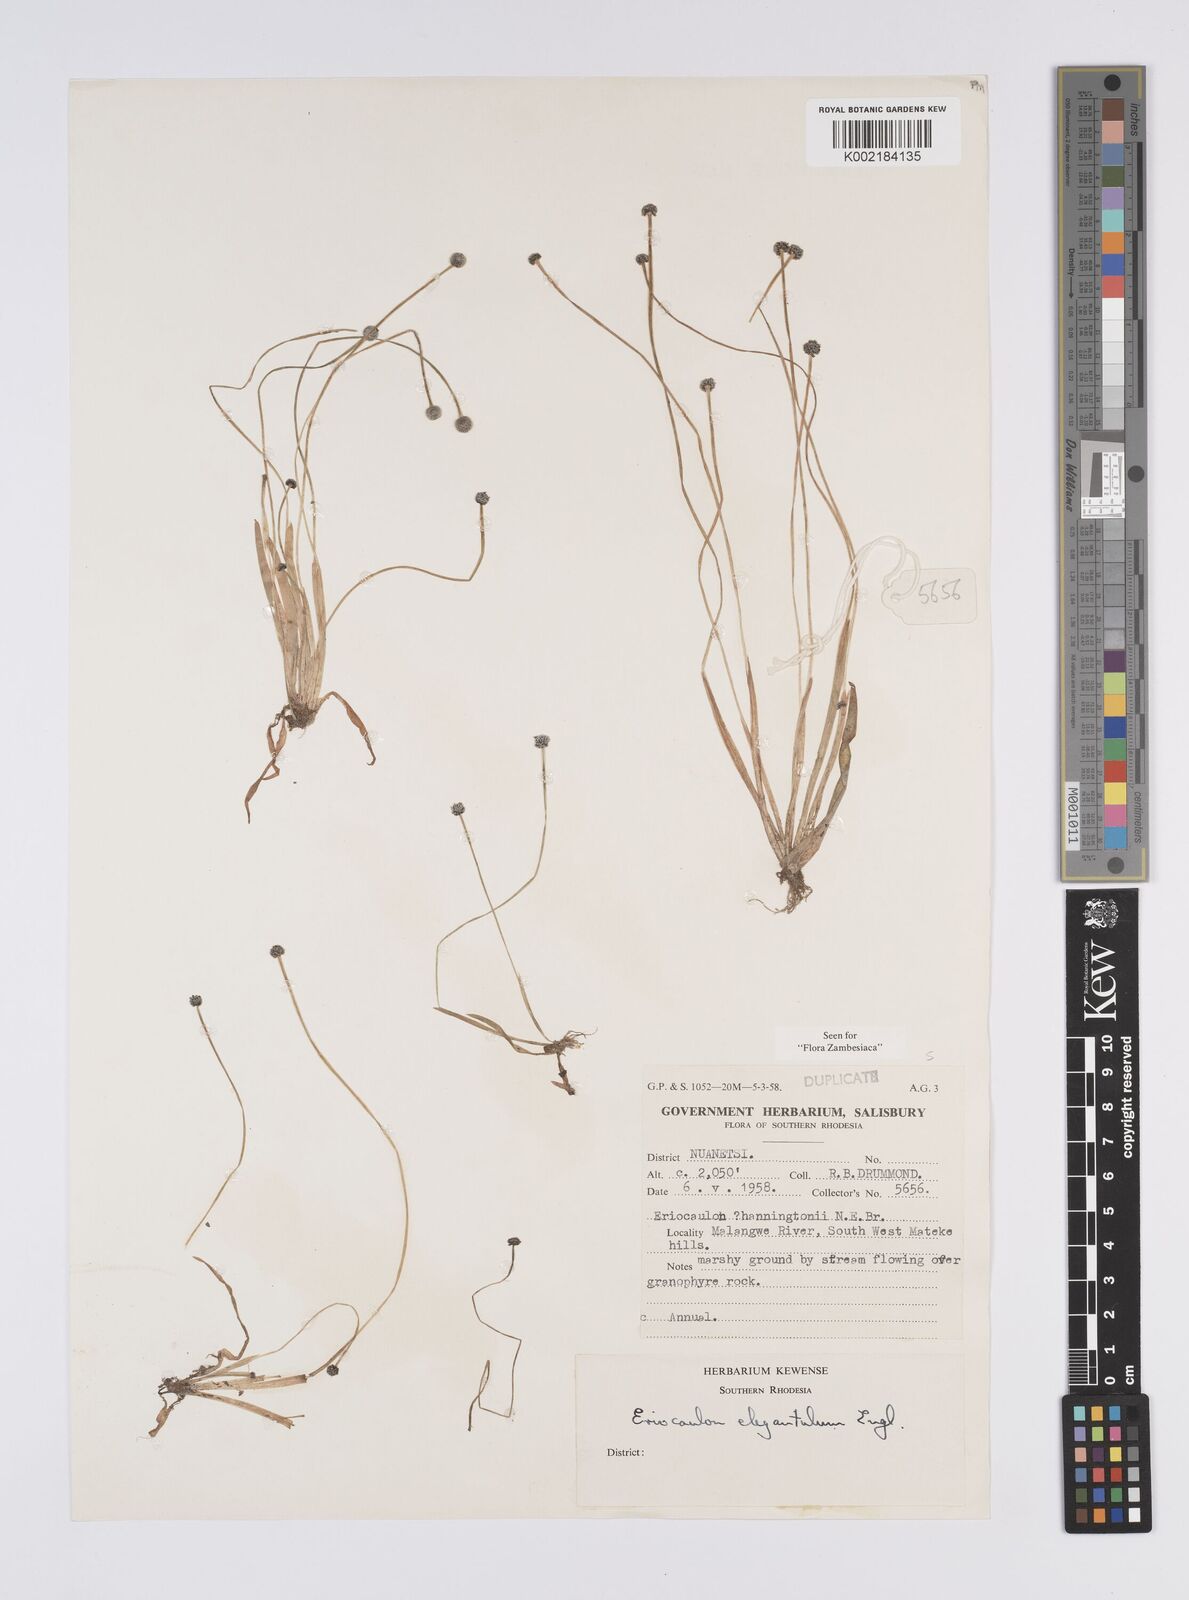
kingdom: Plantae
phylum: Tracheophyta
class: Liliopsida
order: Poales
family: Eriocaulaceae
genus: Eriocaulon
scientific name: Eriocaulon elegantulum
